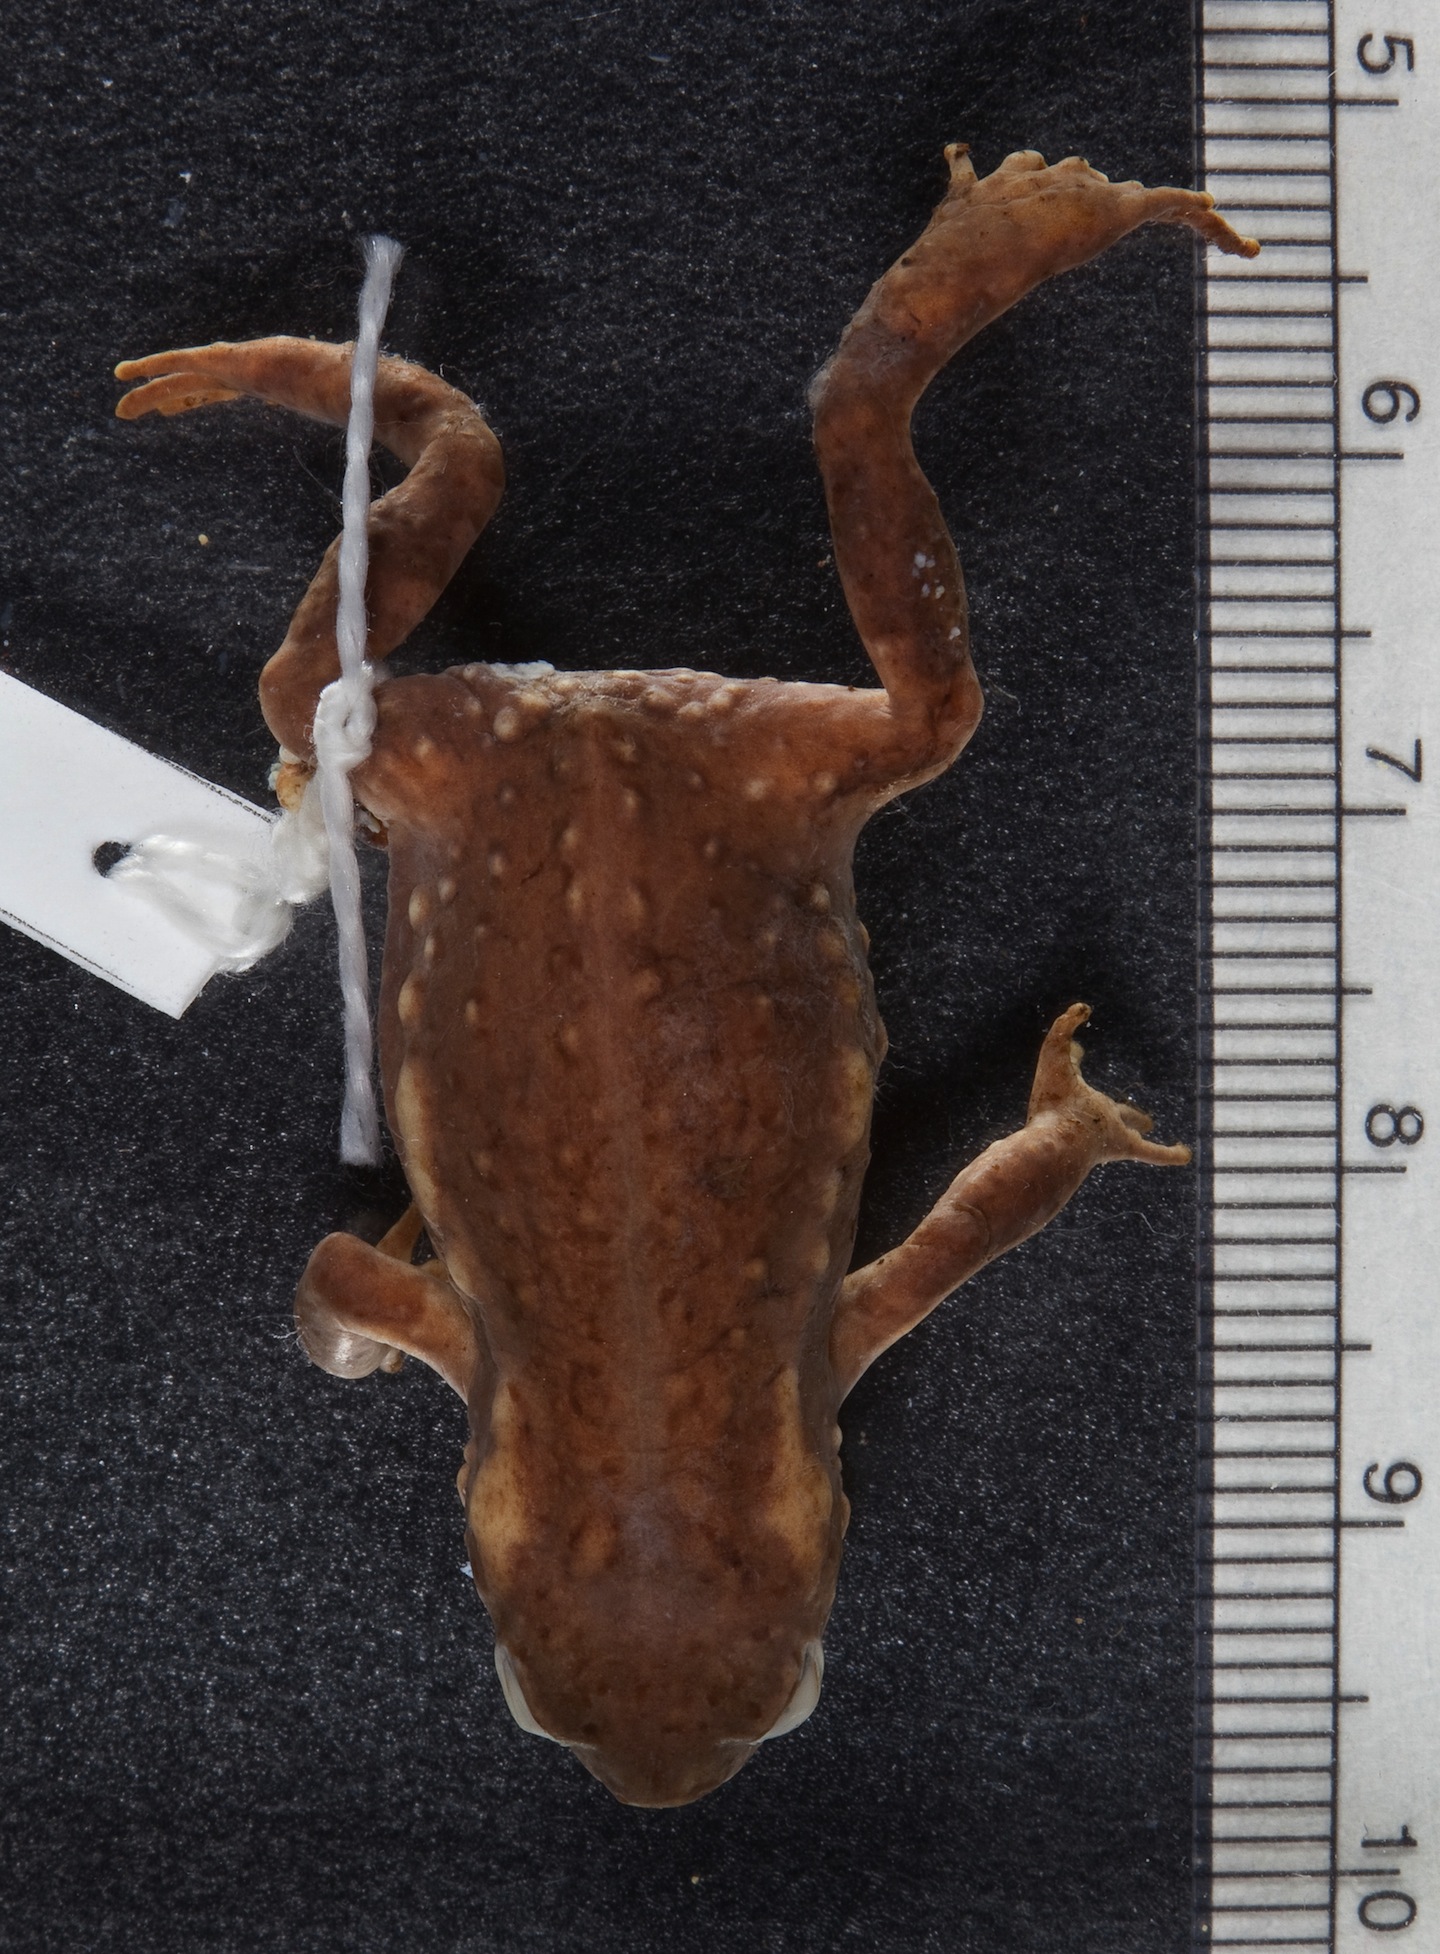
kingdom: Animalia
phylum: Chordata
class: Amphibia
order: Anura
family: Bufonidae
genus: Capensibufo
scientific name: Capensibufo rosei
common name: Cape mountain toad
